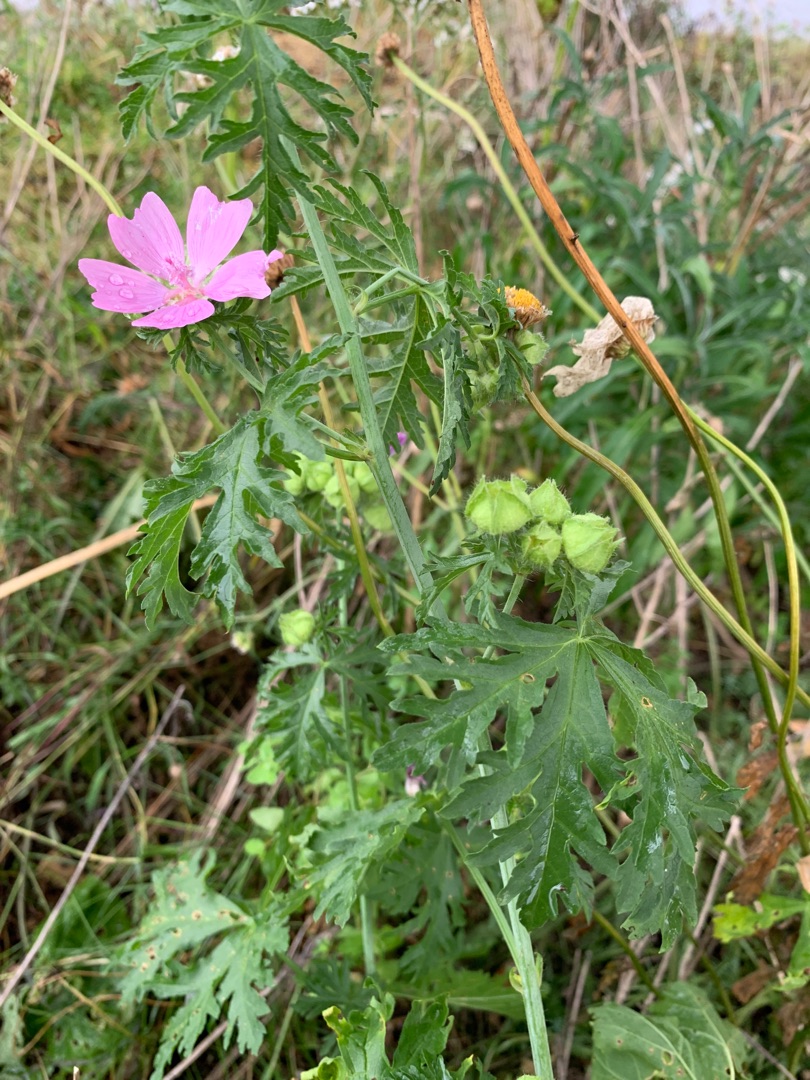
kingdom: Plantae
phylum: Tracheophyta
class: Magnoliopsida
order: Malvales
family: Malvaceae
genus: Malva
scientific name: Malva moschata
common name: Moskus-katost
